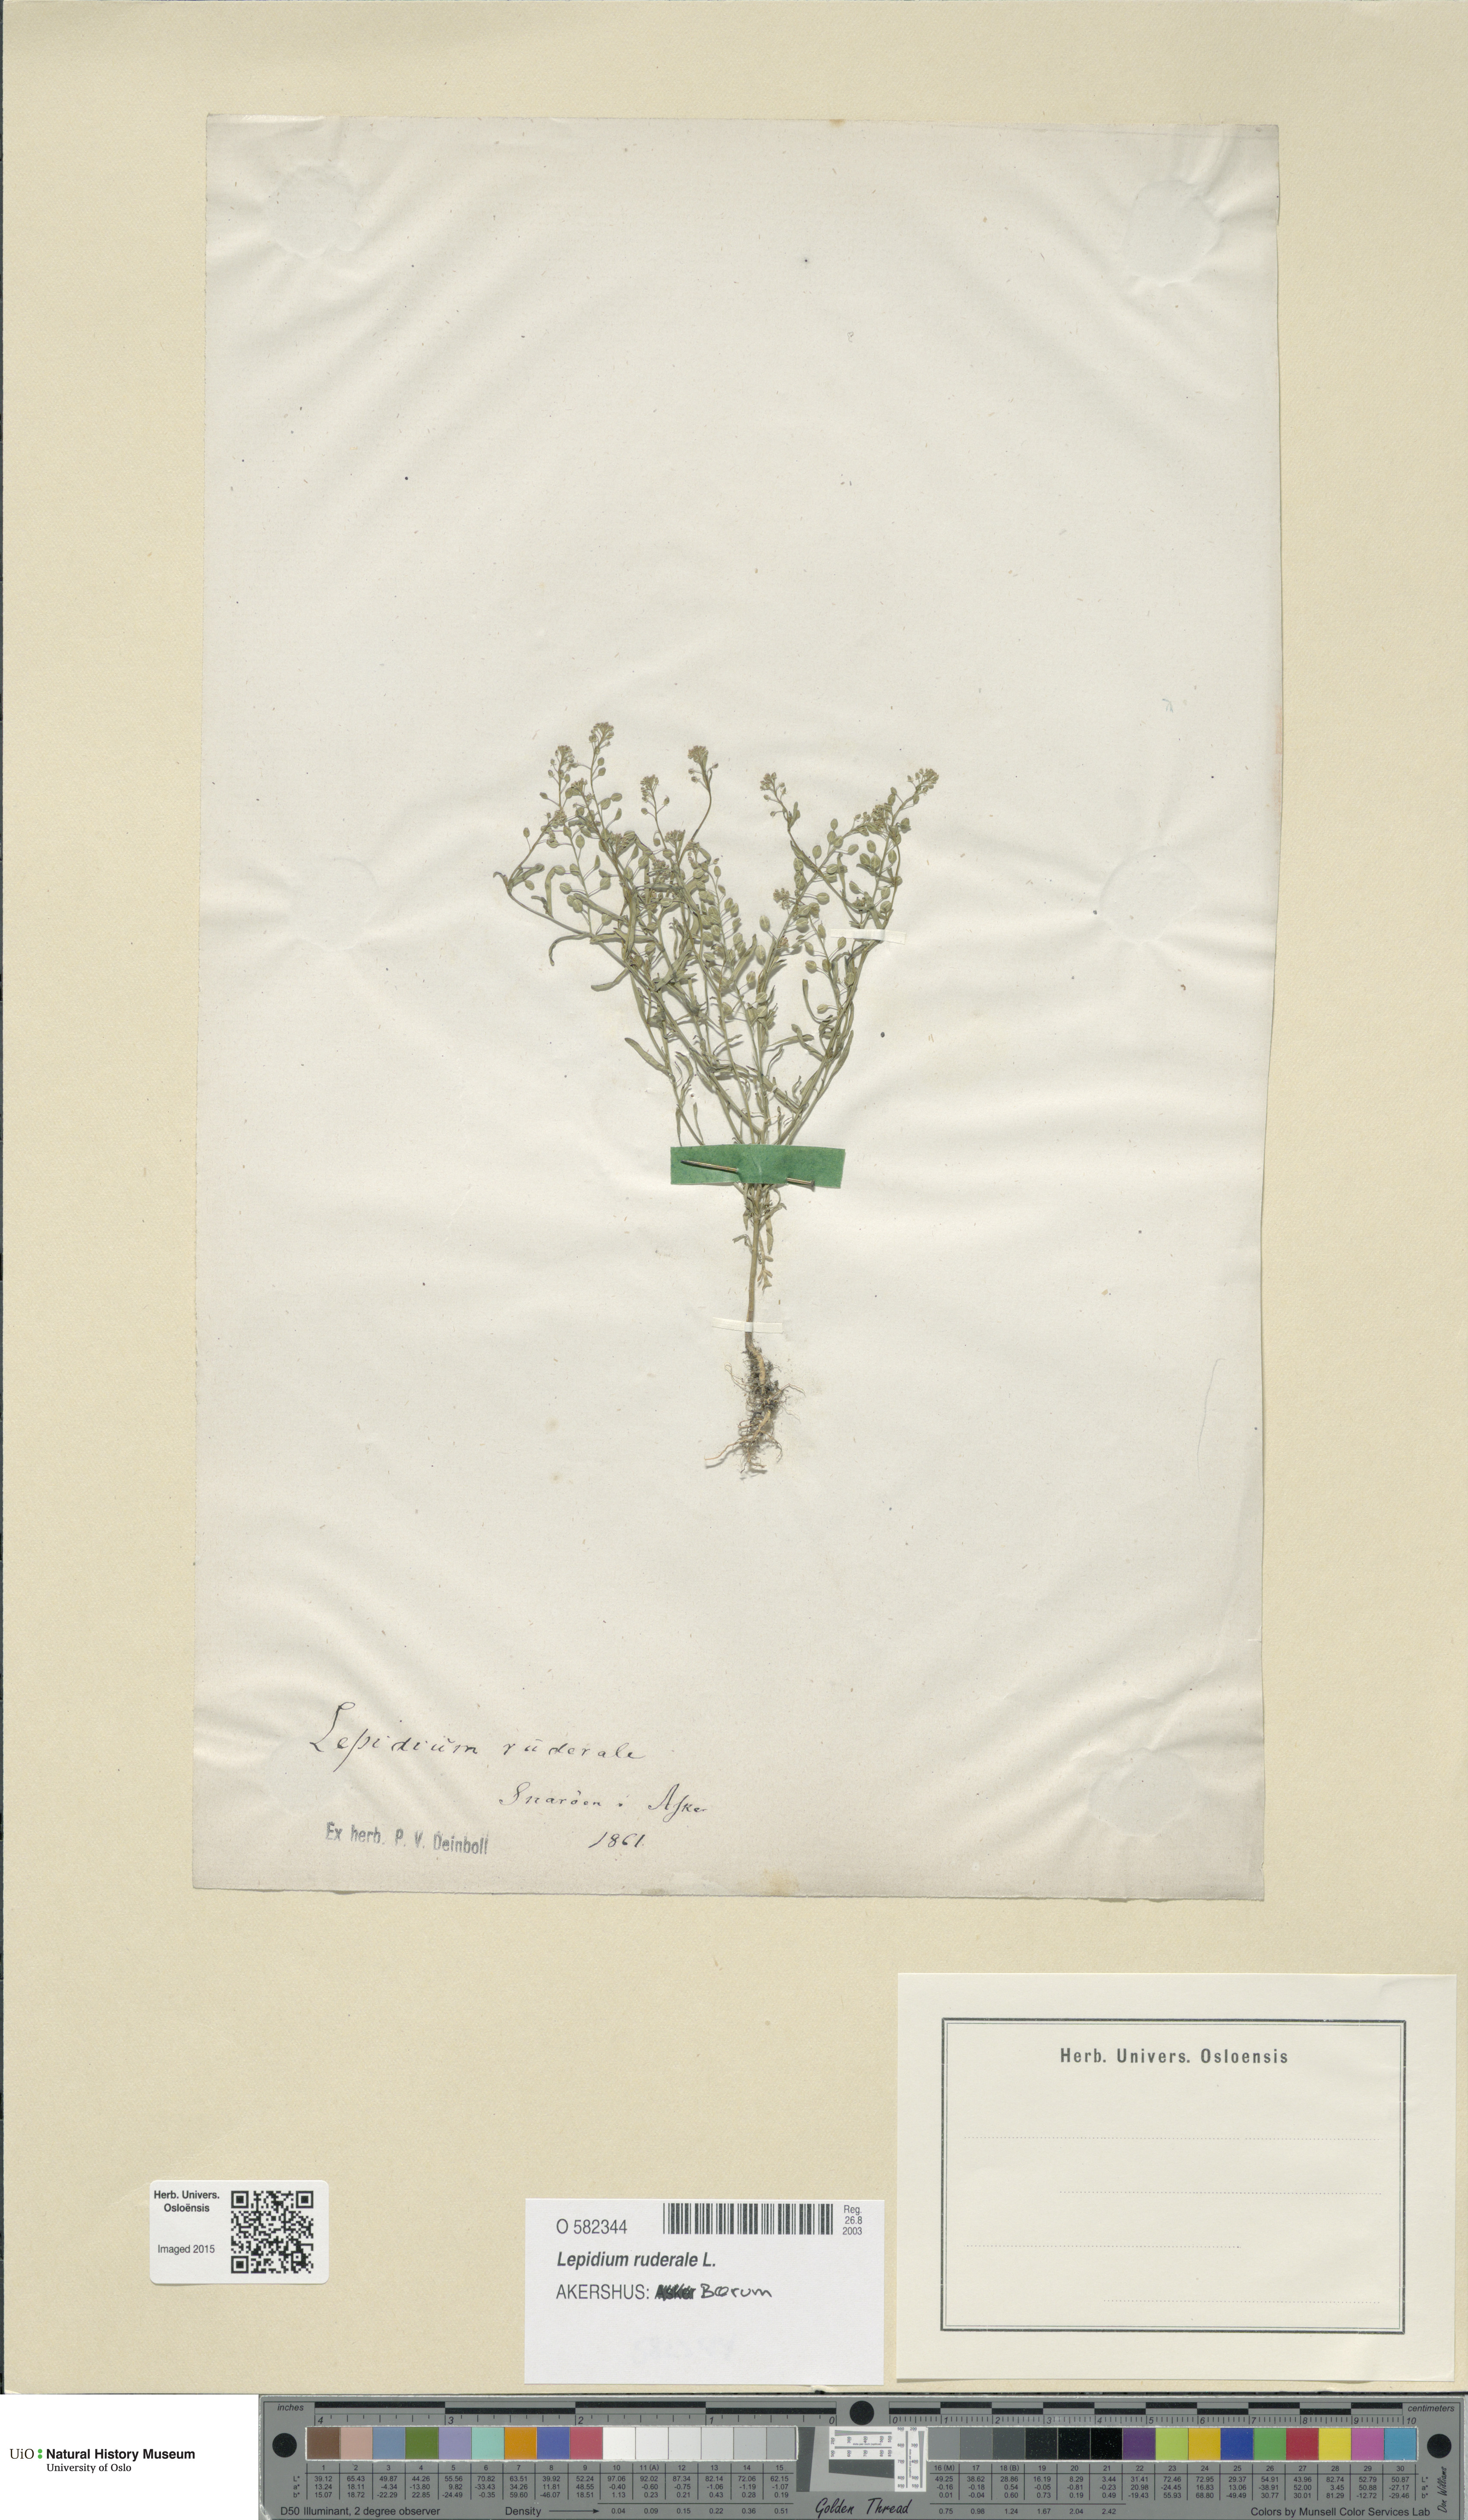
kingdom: Plantae
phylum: Tracheophyta
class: Magnoliopsida
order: Brassicales
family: Brassicaceae
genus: Lepidium
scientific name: Lepidium ruderale
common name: Narrow-leaved pepperwort
